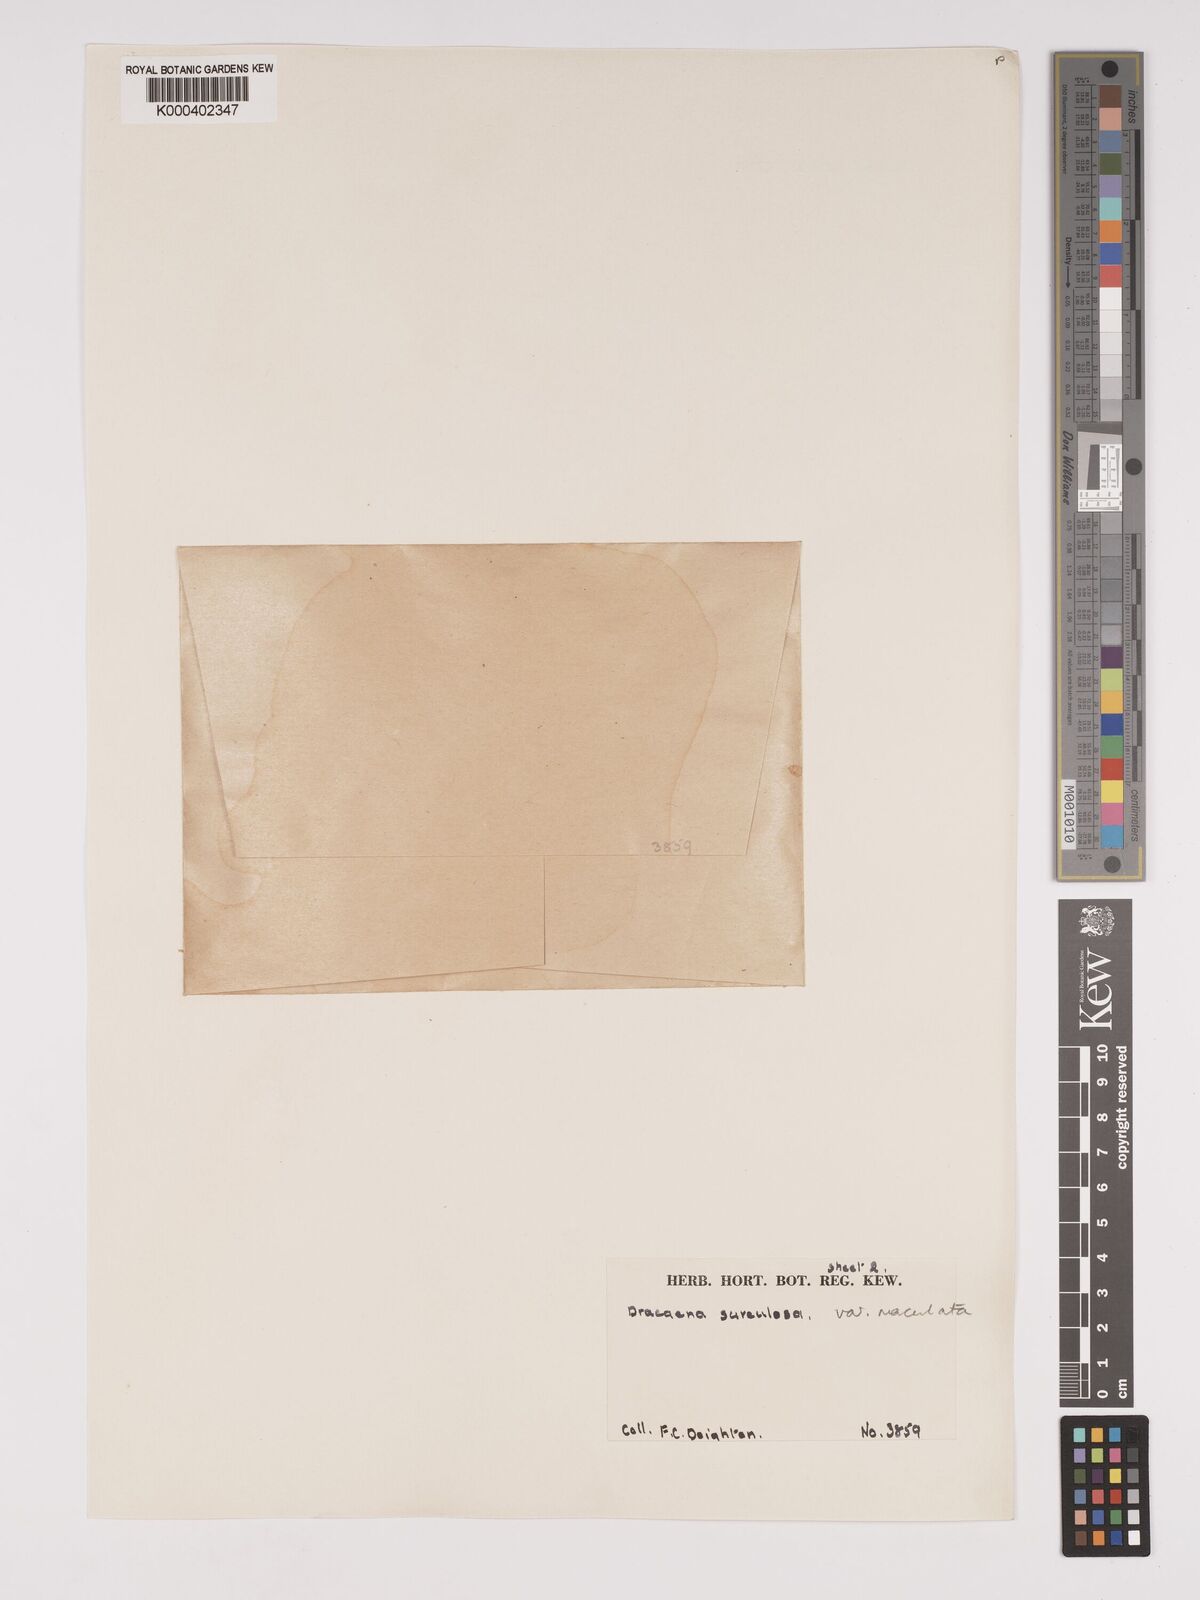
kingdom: Plantae
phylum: Tracheophyta
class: Liliopsida
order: Asparagales
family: Asparagaceae
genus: Dracaena
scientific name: Dracaena surculosa
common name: Spotted dracaena
